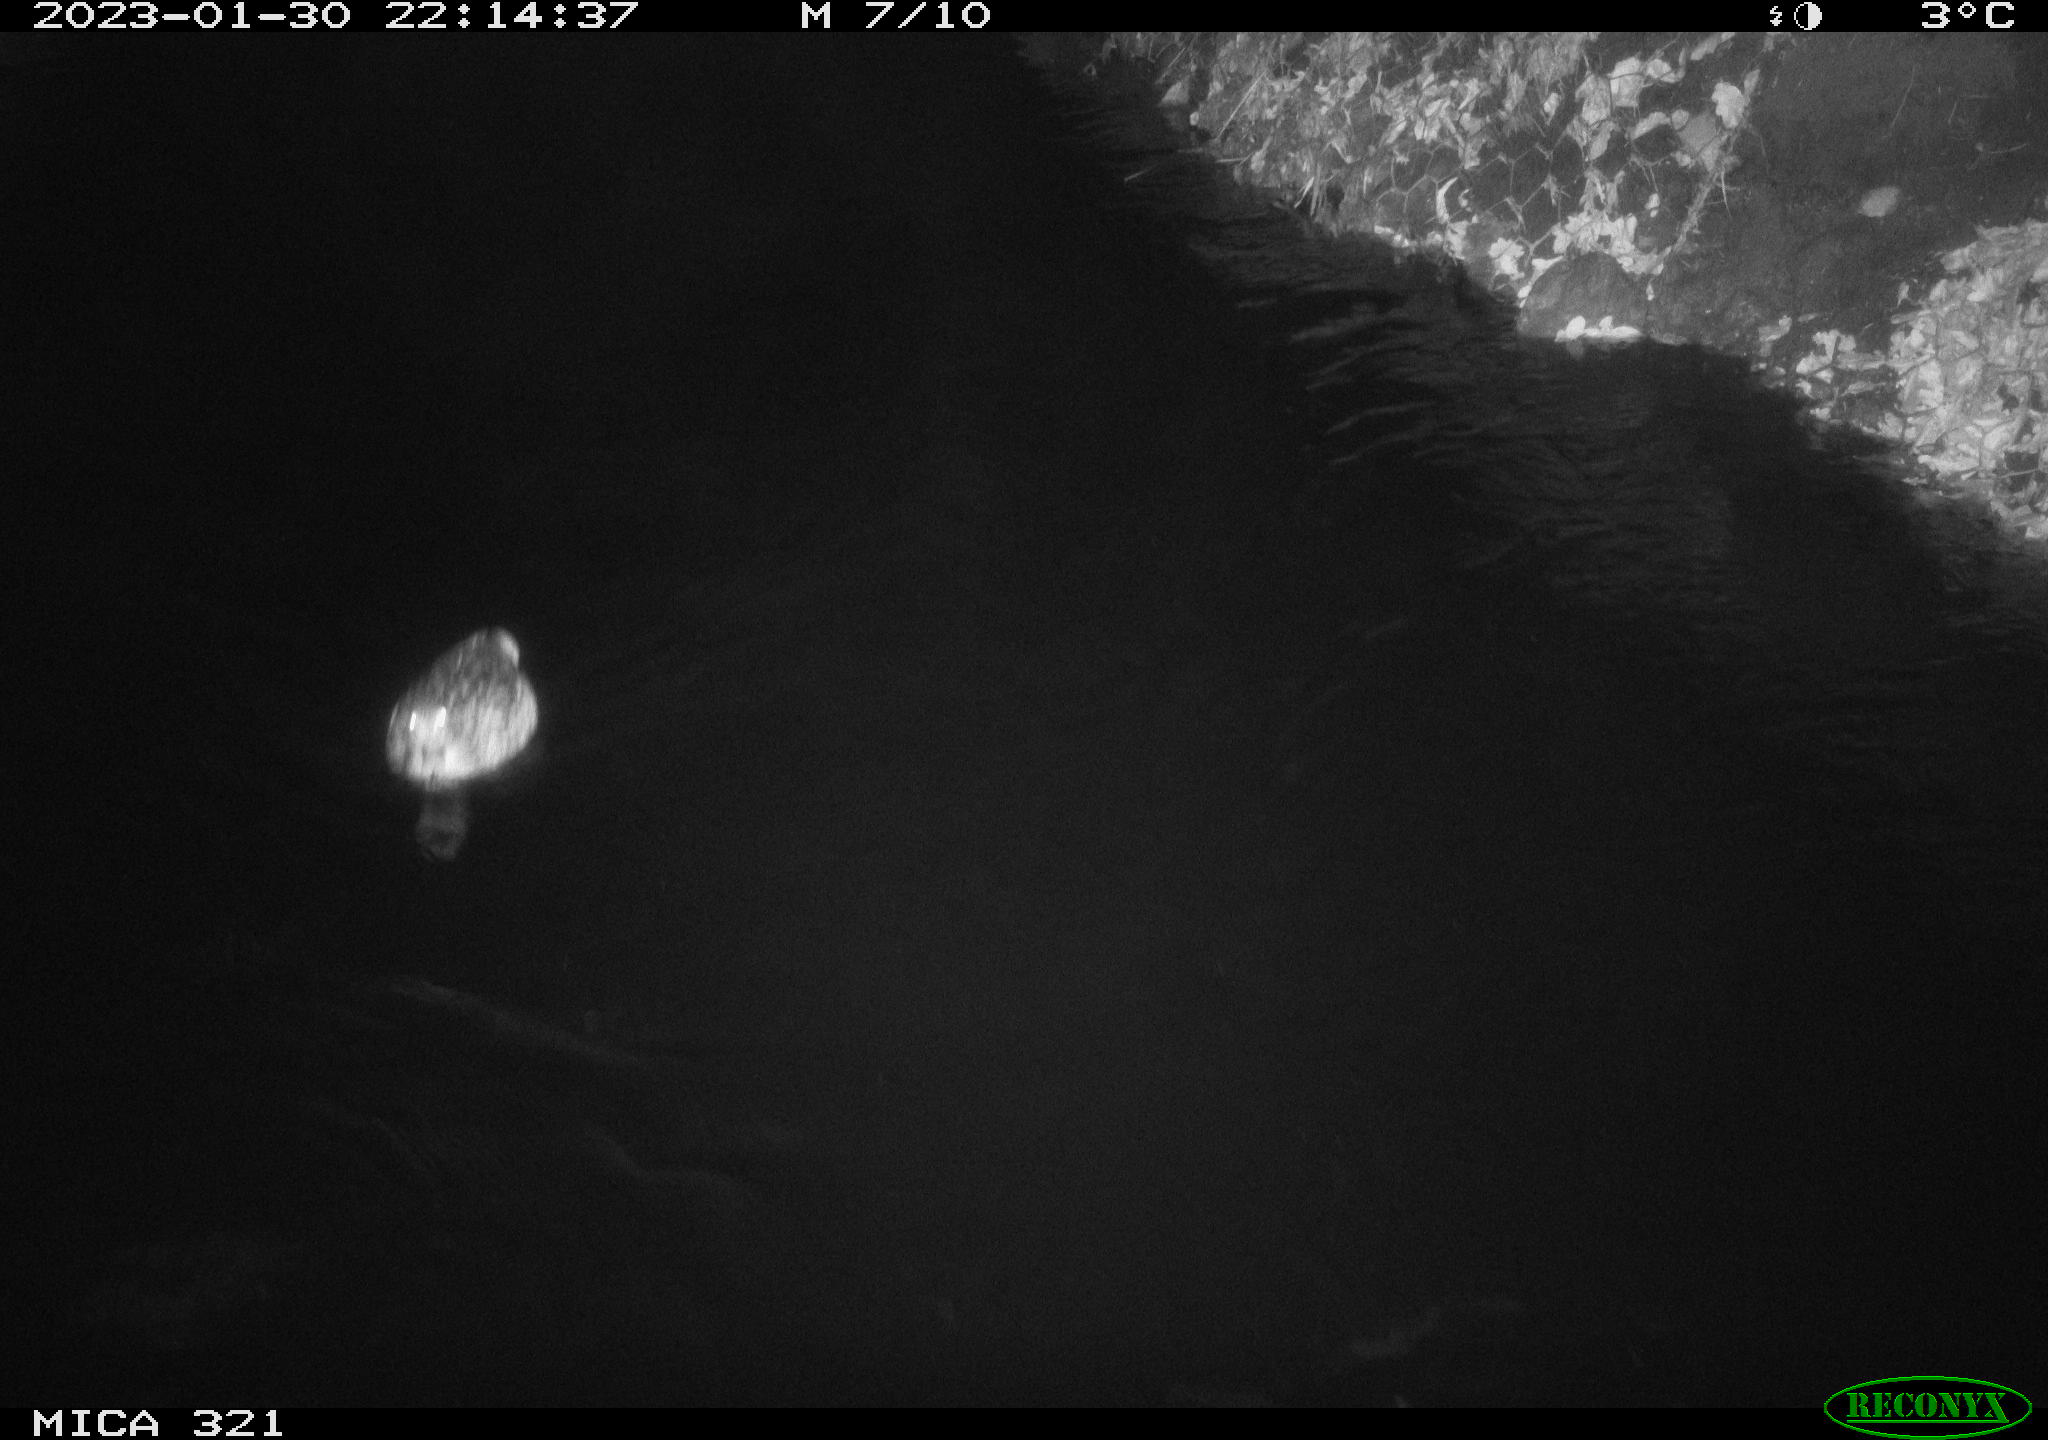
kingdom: Animalia
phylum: Chordata
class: Aves
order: Anseriformes
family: Anatidae
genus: Anas
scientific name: Anas
